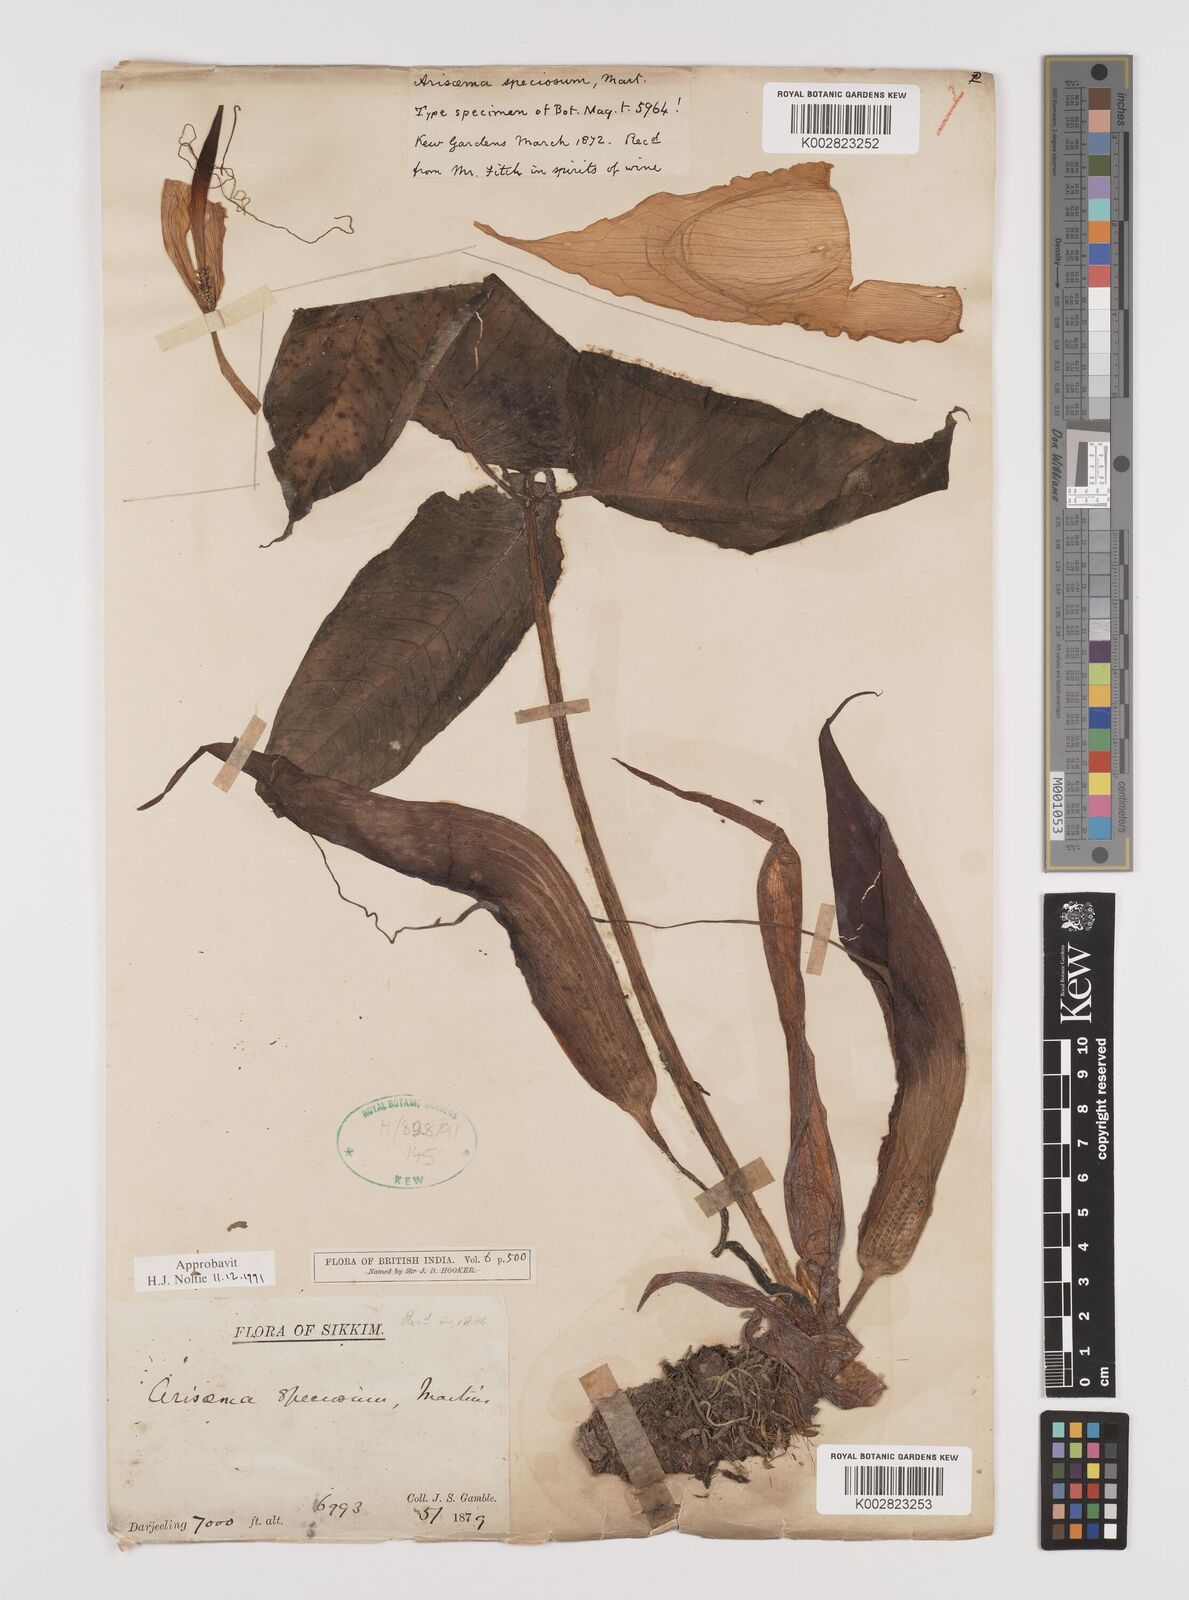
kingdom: Plantae
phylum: Tracheophyta
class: Liliopsida
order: Alismatales
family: Araceae
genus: Arisaema
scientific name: Arisaema speciosum
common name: Showy cobra-lily
